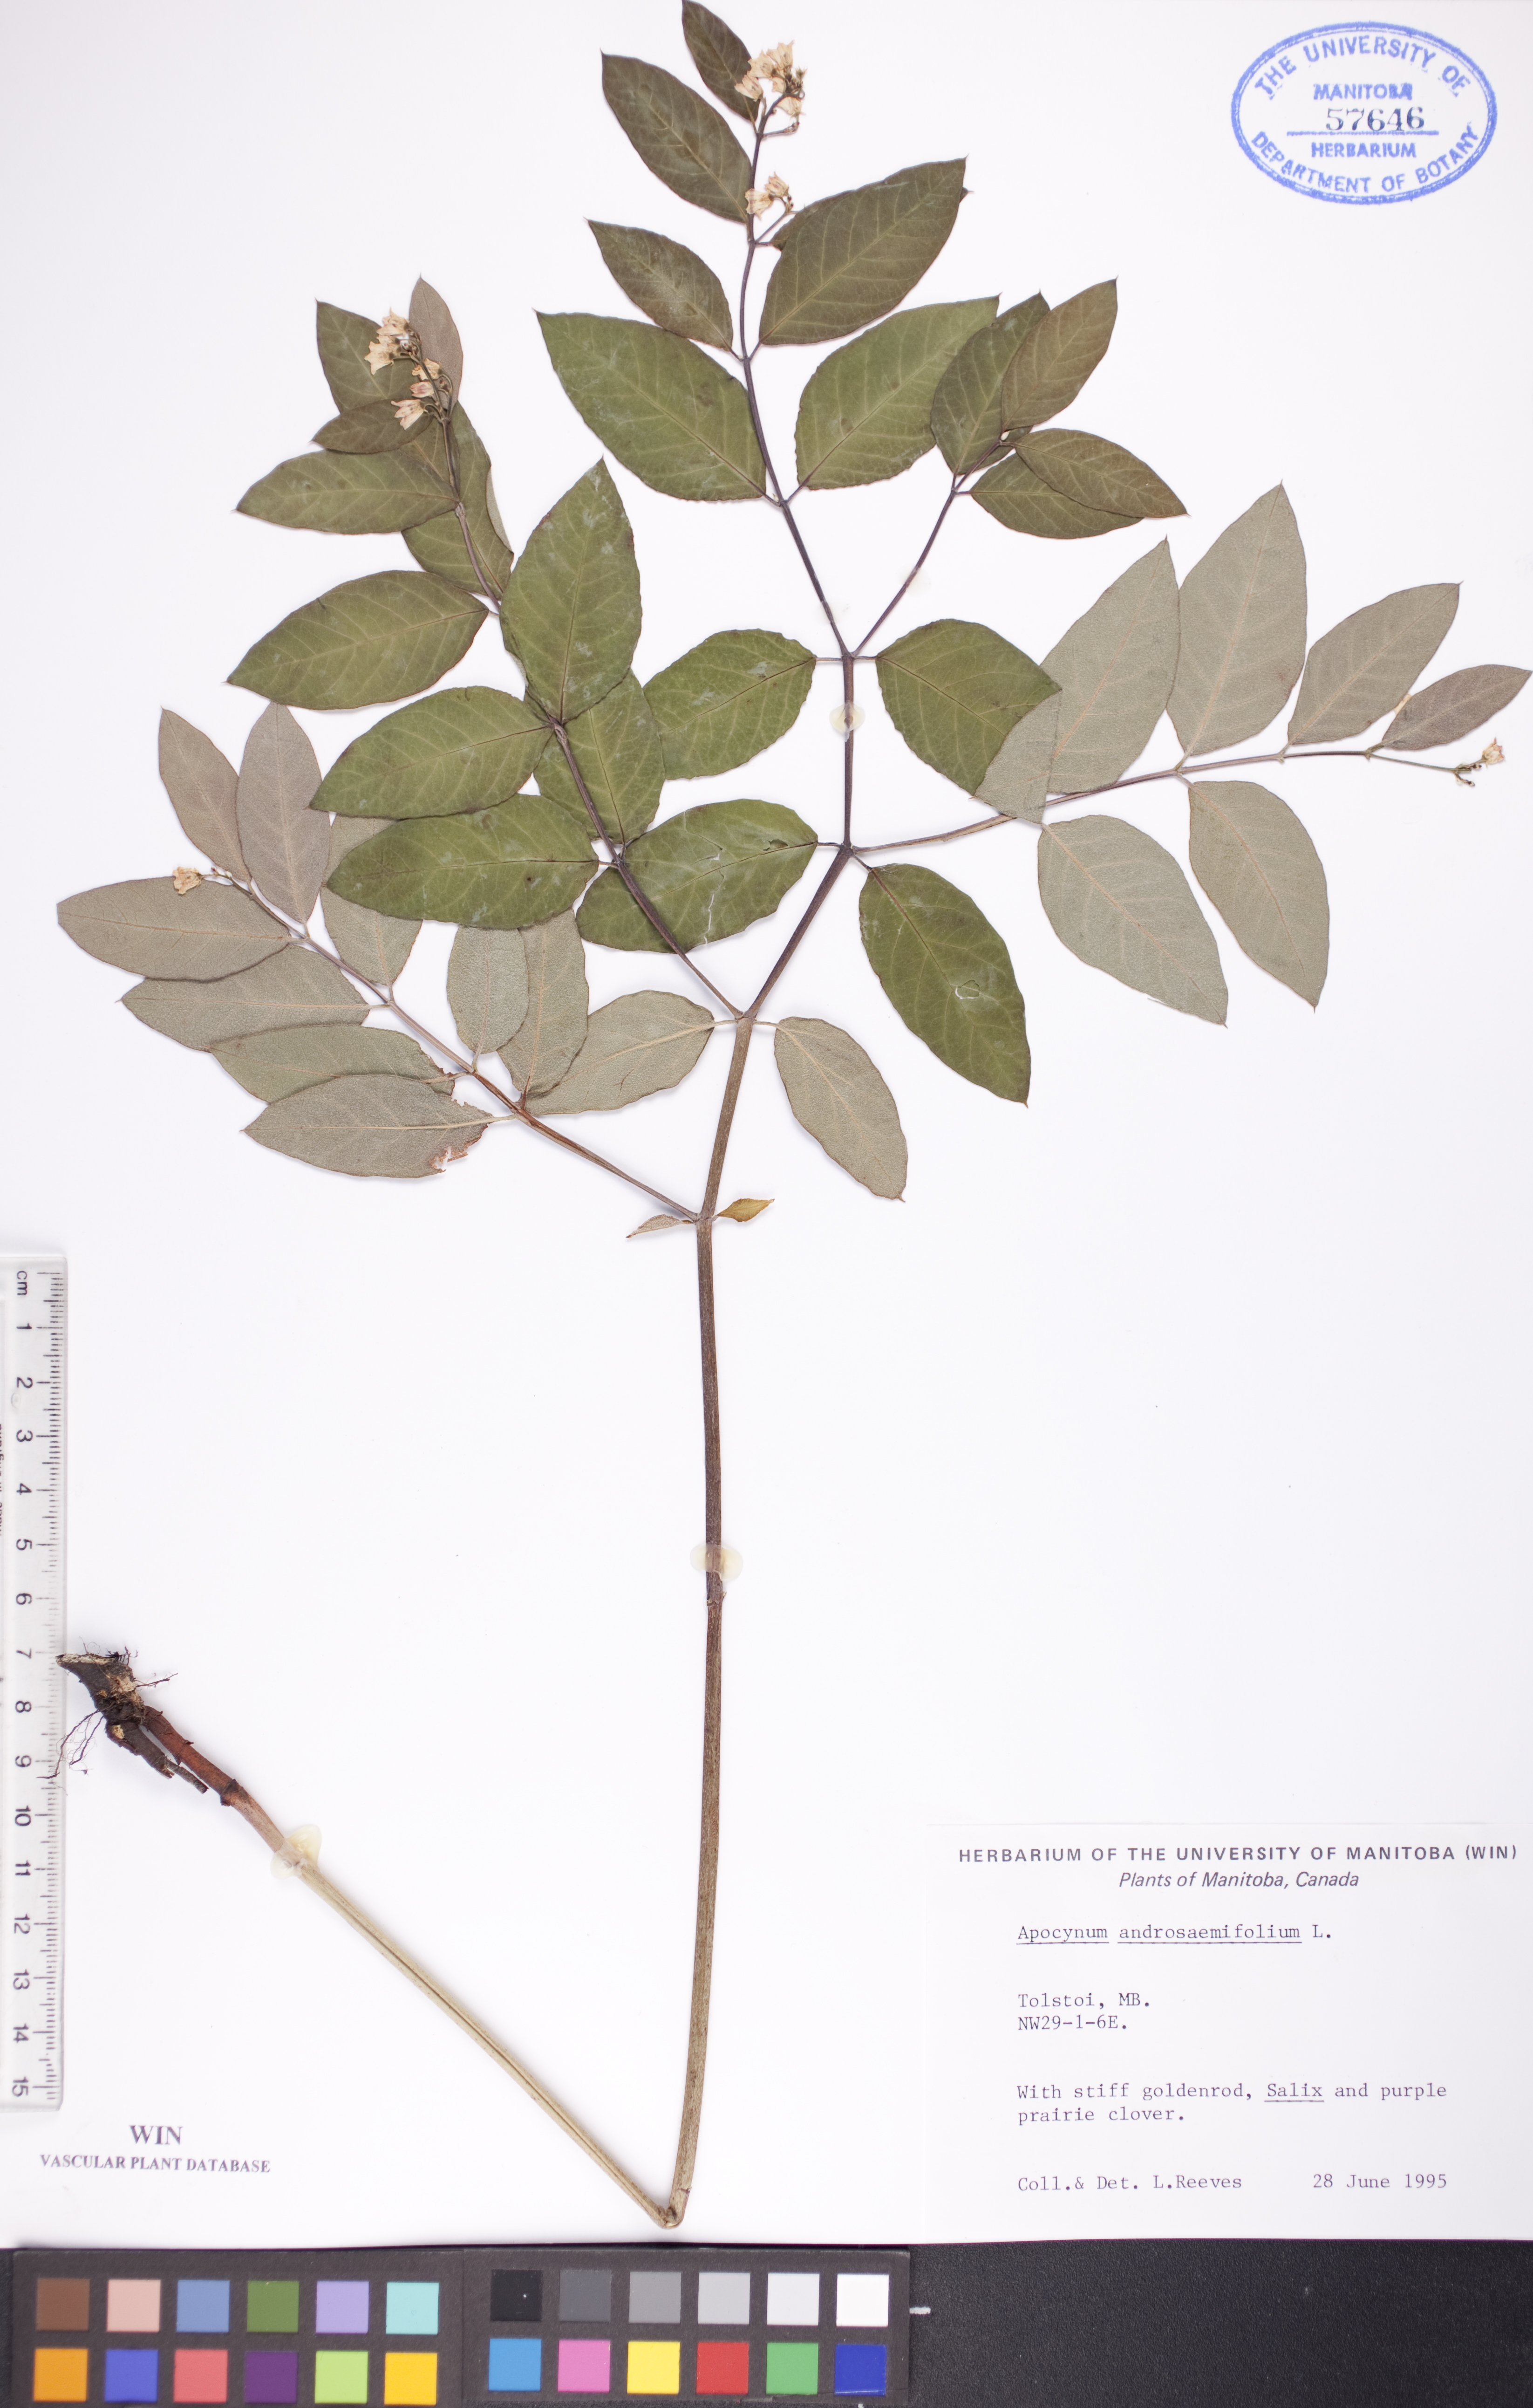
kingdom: Plantae
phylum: Tracheophyta
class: Magnoliopsida
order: Gentianales
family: Apocynaceae
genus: Apocynum
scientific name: Apocynum androsaemifolium
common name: Spreading dogbane
